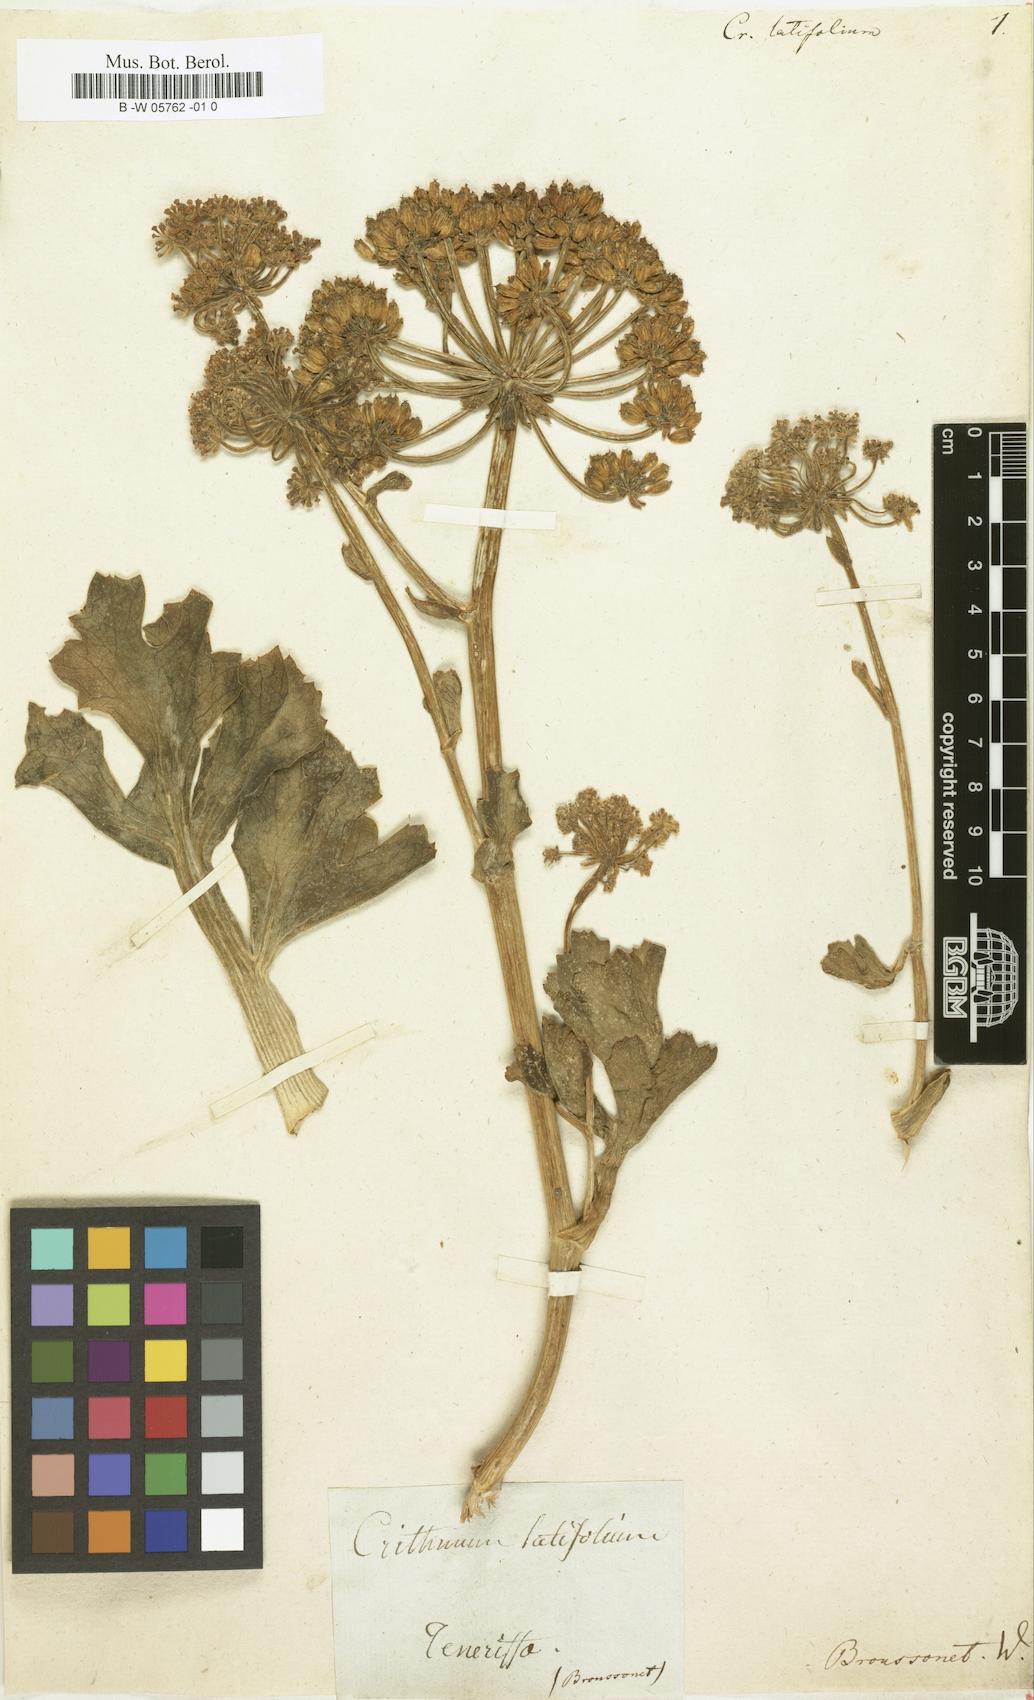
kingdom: Plantae
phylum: Tracheophyta
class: Magnoliopsida
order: Apiales
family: Apiaceae
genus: Astydamia
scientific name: Astydamia latifolia
